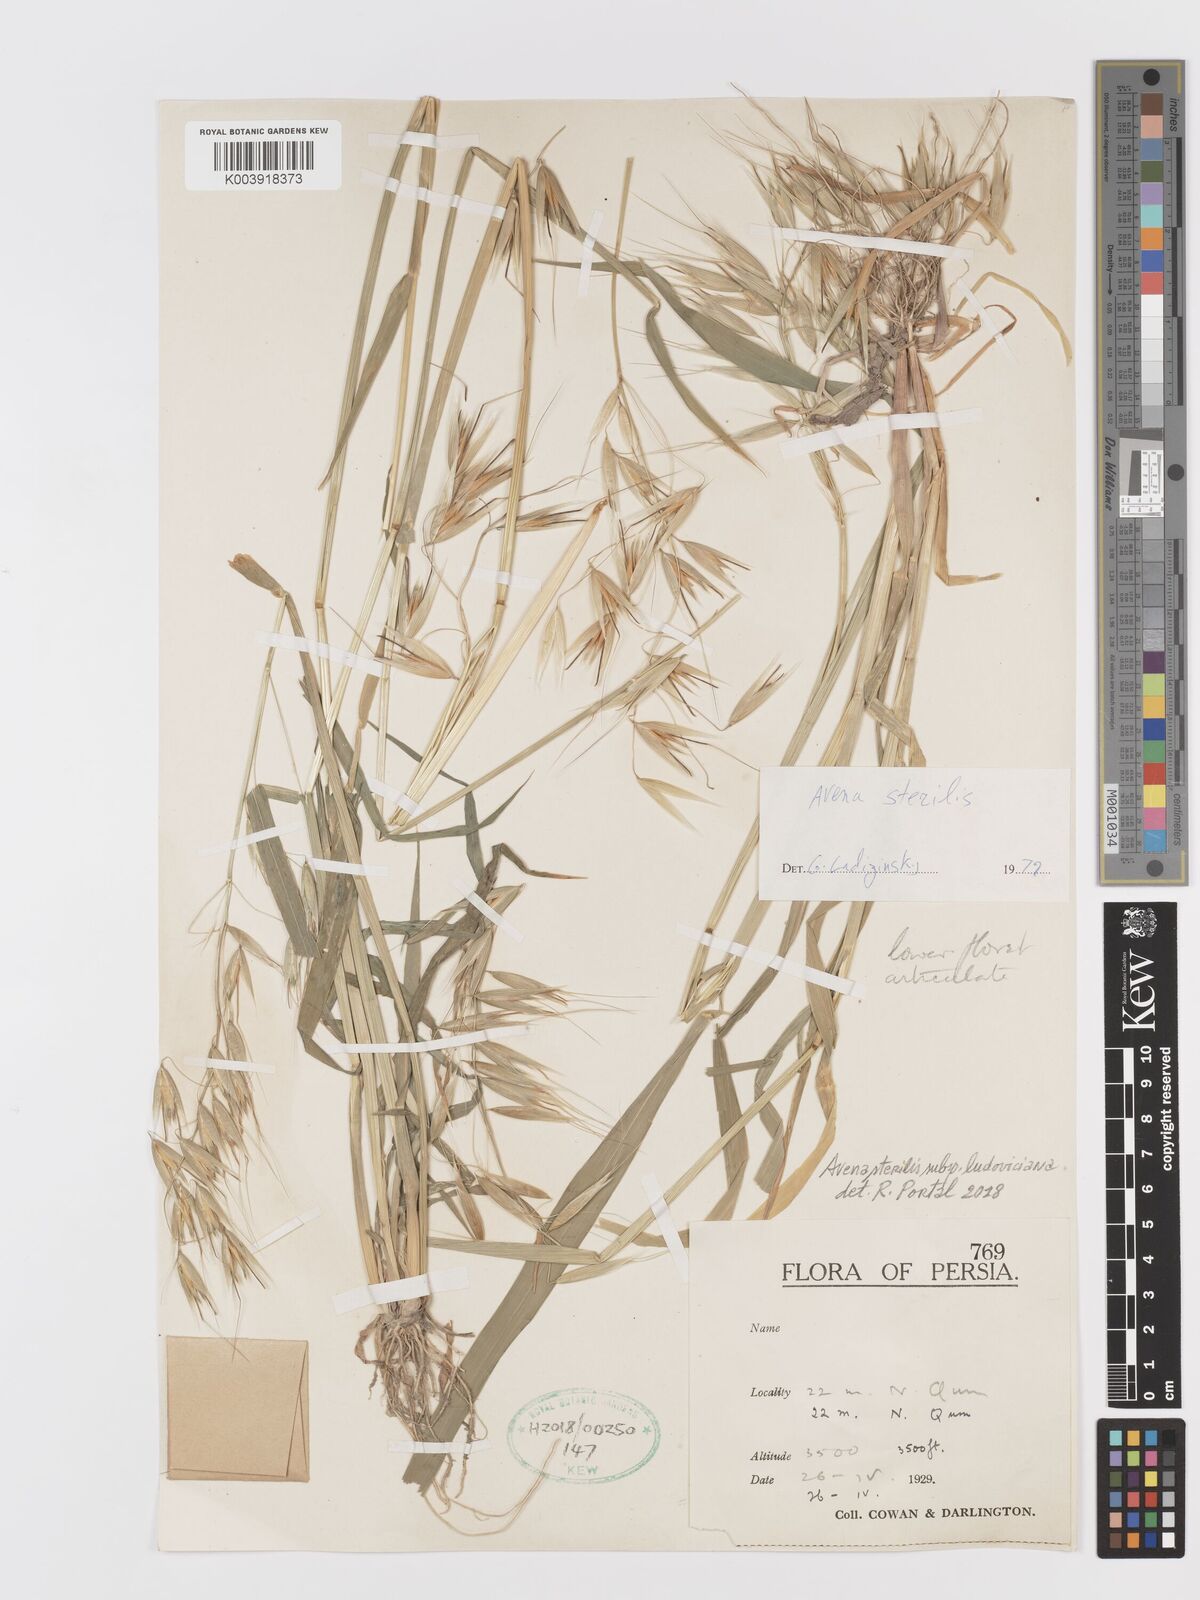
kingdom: Plantae
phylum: Tracheophyta
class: Liliopsida
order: Poales
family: Poaceae
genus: Avena
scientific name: Avena sterilis
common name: Animated oat
